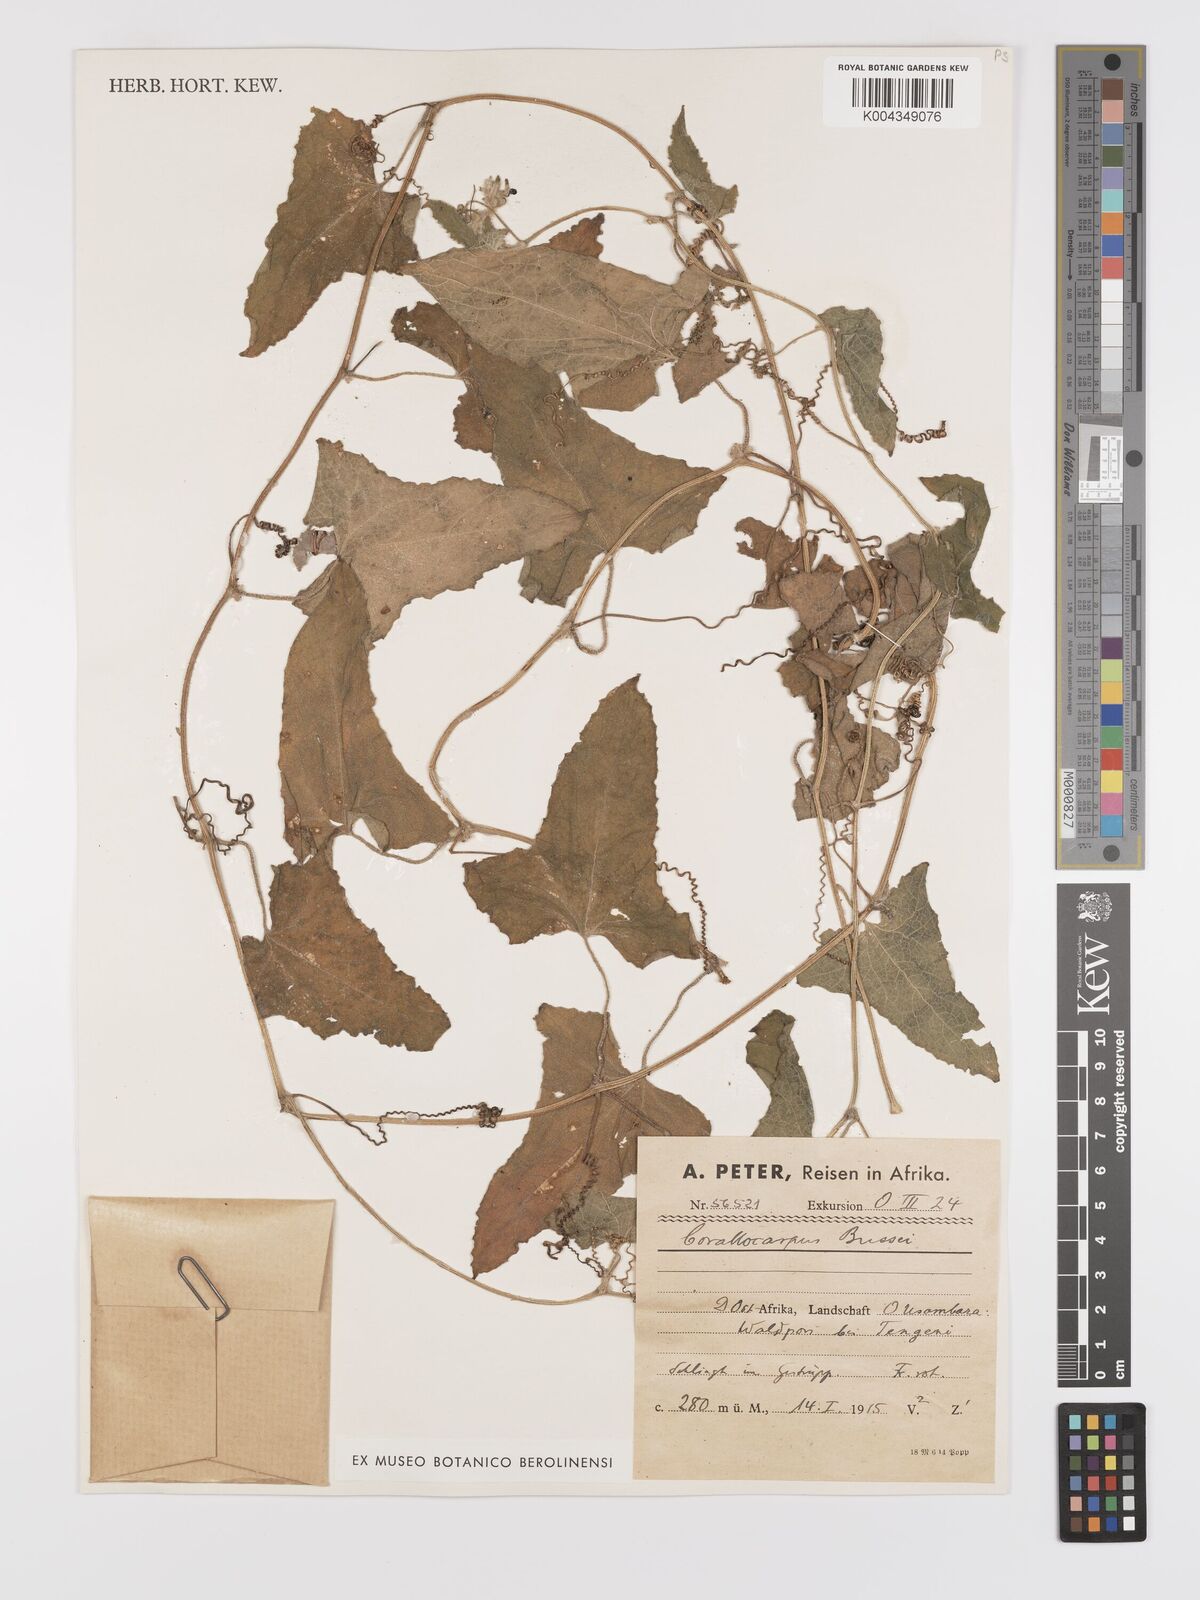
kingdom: Plantae
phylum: Tracheophyta
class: Magnoliopsida
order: Cucurbitales
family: Cucurbitaceae
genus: Cucumis
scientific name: Cucumis maderaspatanus
